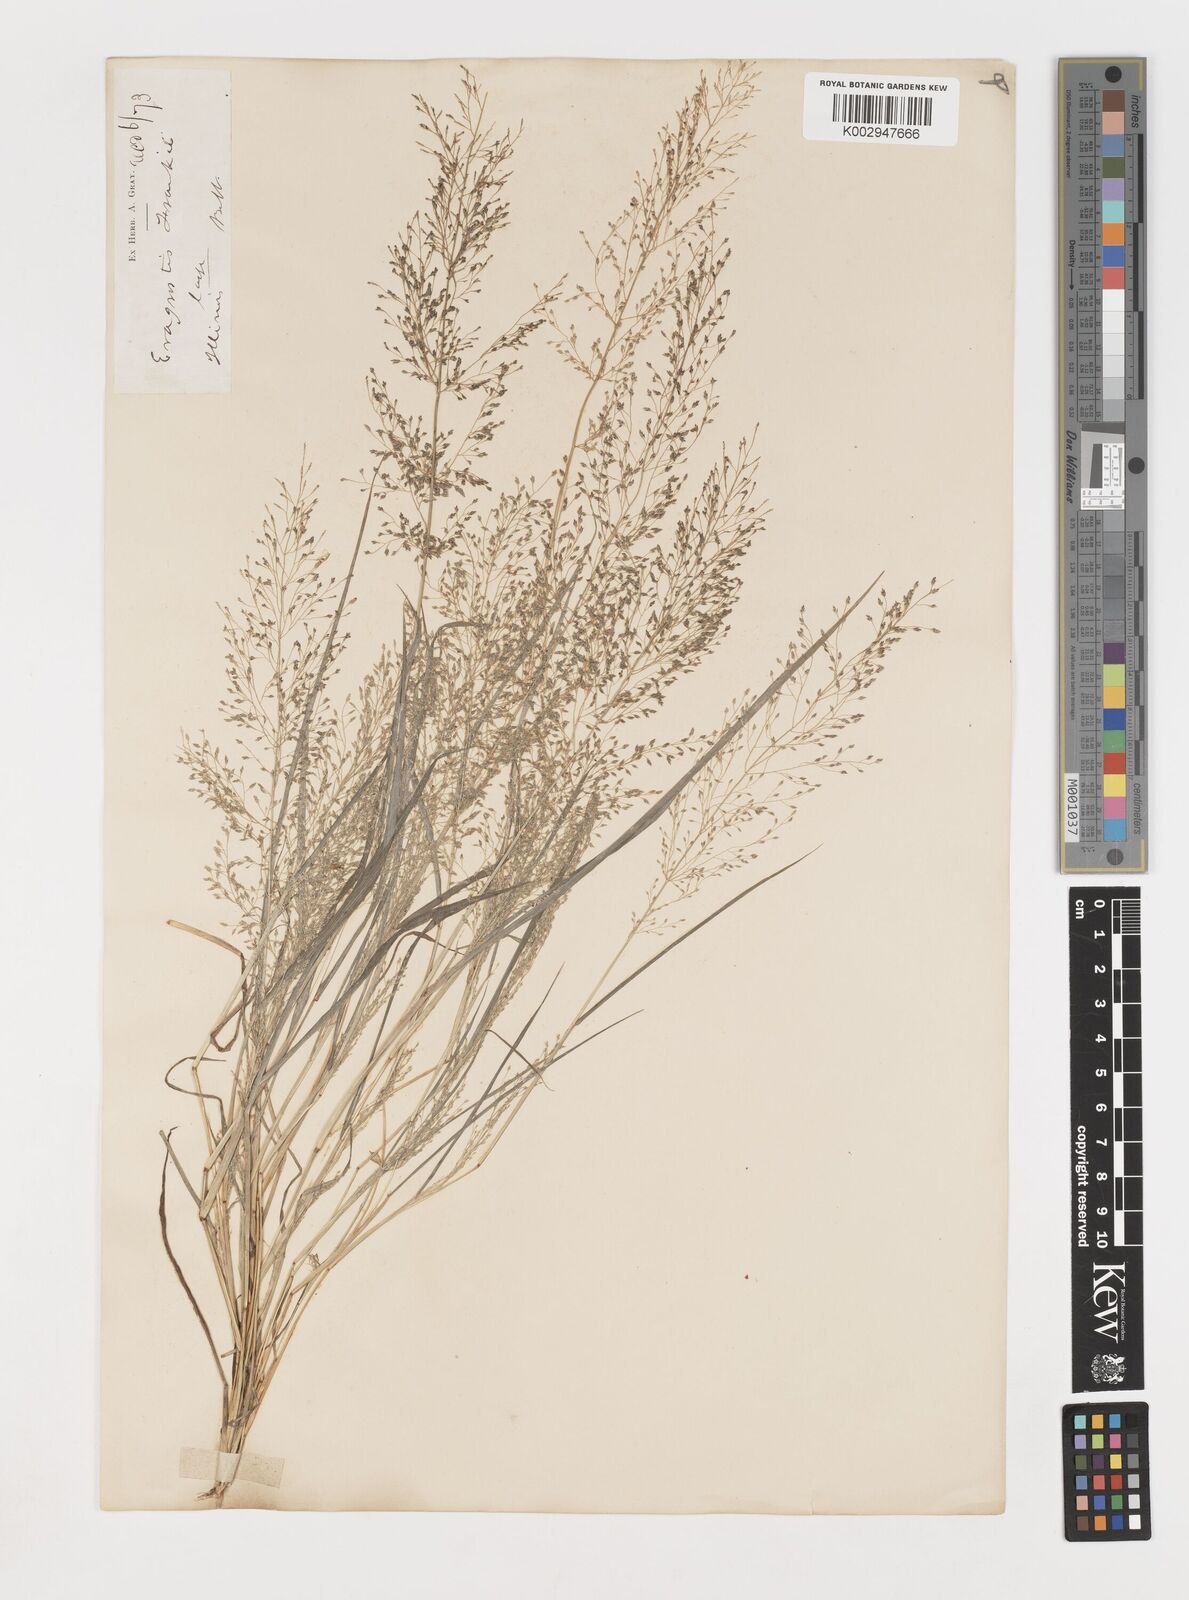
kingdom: Plantae
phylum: Tracheophyta
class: Liliopsida
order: Poales
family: Poaceae
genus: Eragrostis
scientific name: Eragrostis frankii
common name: Frank's lovegrass
